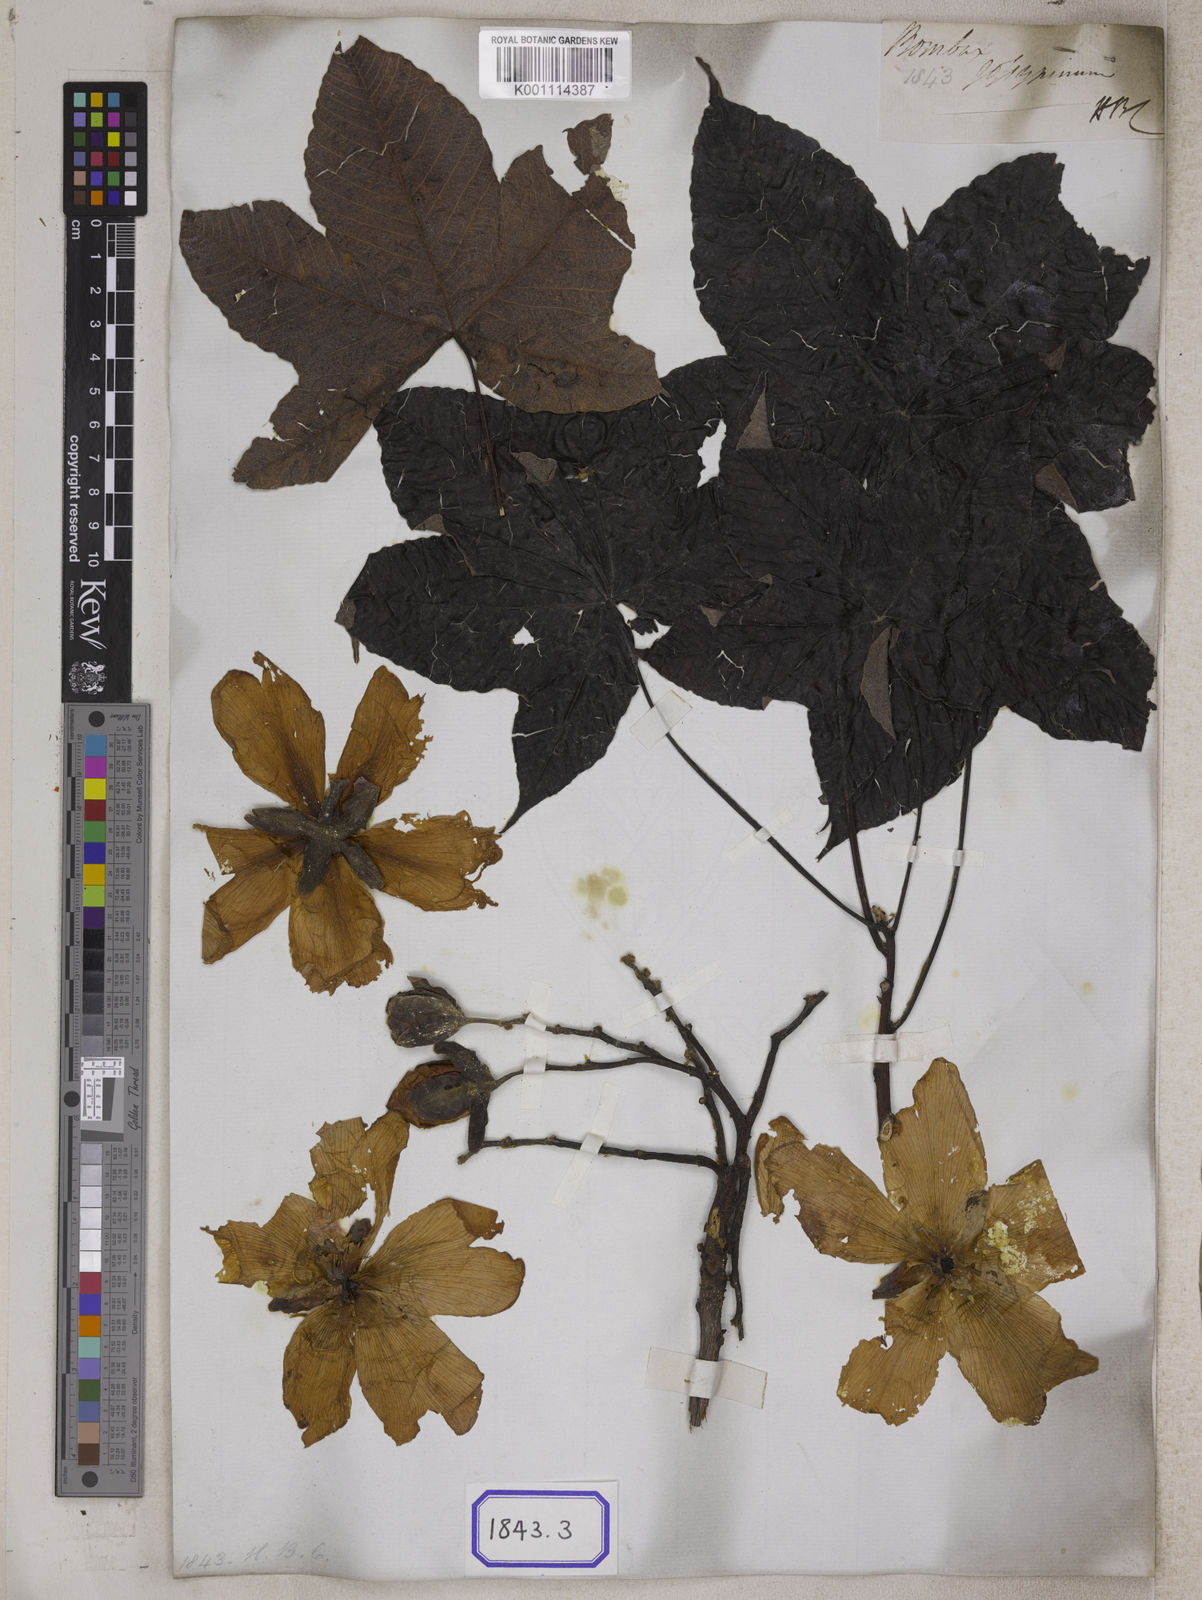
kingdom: Plantae
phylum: Tracheophyta
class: Magnoliopsida
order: Malvales
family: Cochlospermaceae
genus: Cochlospermum
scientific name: Cochlospermum religiosum
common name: Cottontree
